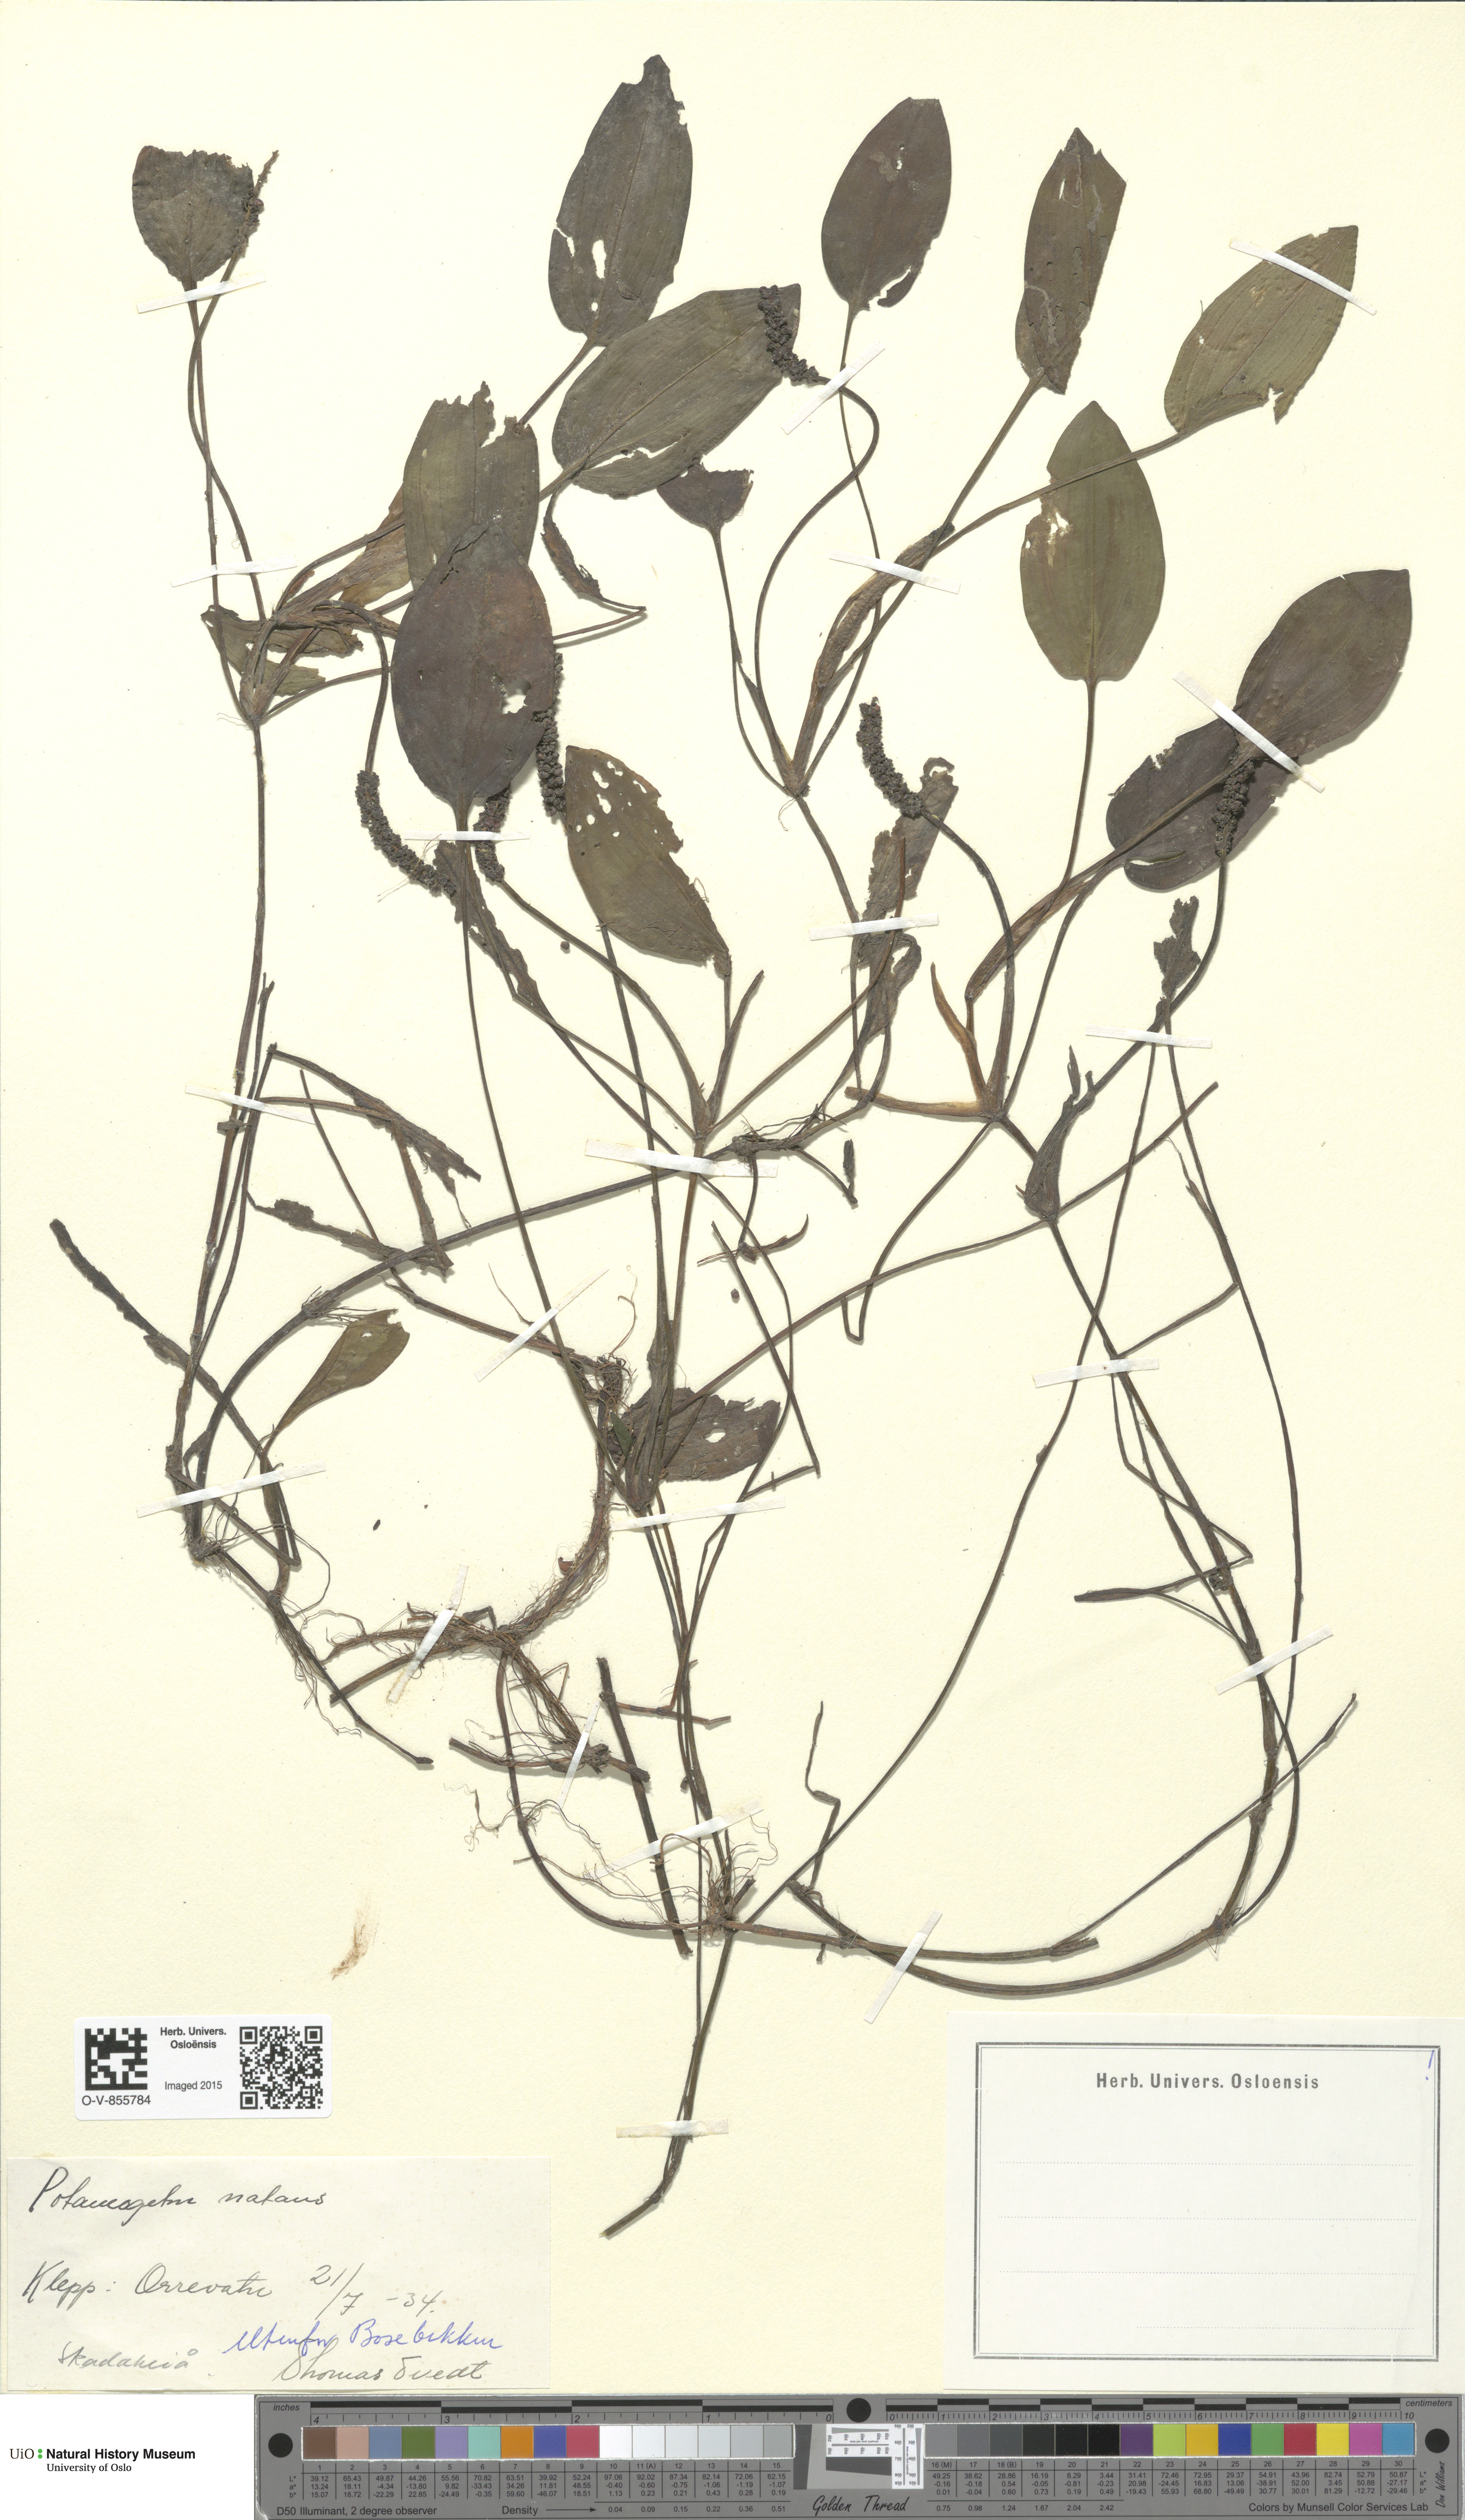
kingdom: Plantae
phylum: Tracheophyta
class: Liliopsida
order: Alismatales
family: Potamogetonaceae
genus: Potamogeton
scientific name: Potamogeton polygonifolius
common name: Bog pondweed
